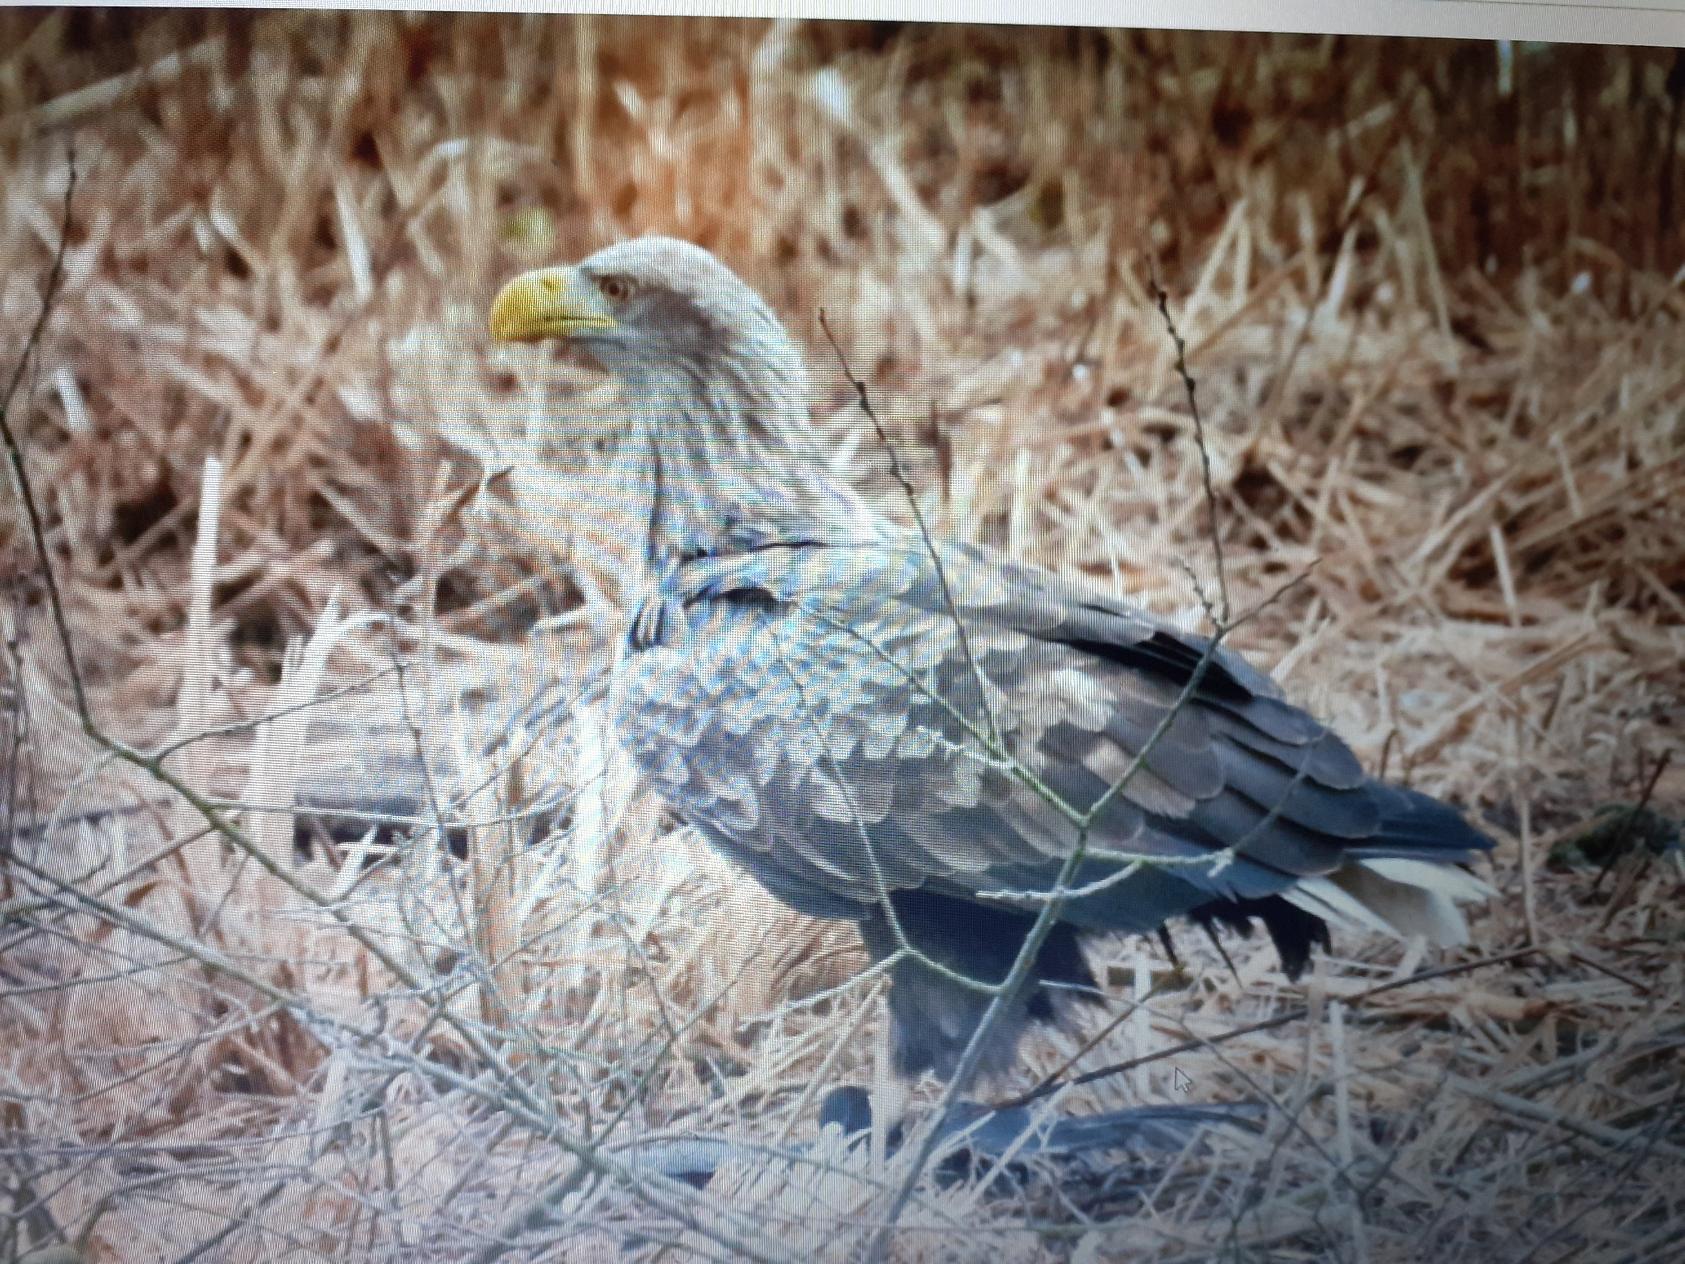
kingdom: Animalia
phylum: Chordata
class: Aves
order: Accipitriformes
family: Accipitridae
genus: Haliaeetus
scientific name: Haliaeetus albicilla
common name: Havørn
